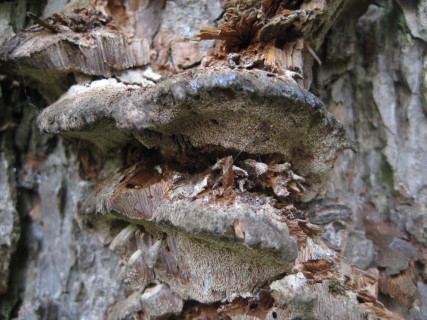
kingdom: Fungi
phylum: Basidiomycota
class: Agaricomycetes
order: Hymenochaetales
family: Hymenochaetaceae
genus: Xanthoporia
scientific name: Xanthoporia radiata
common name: elle-spejlporesvamp
